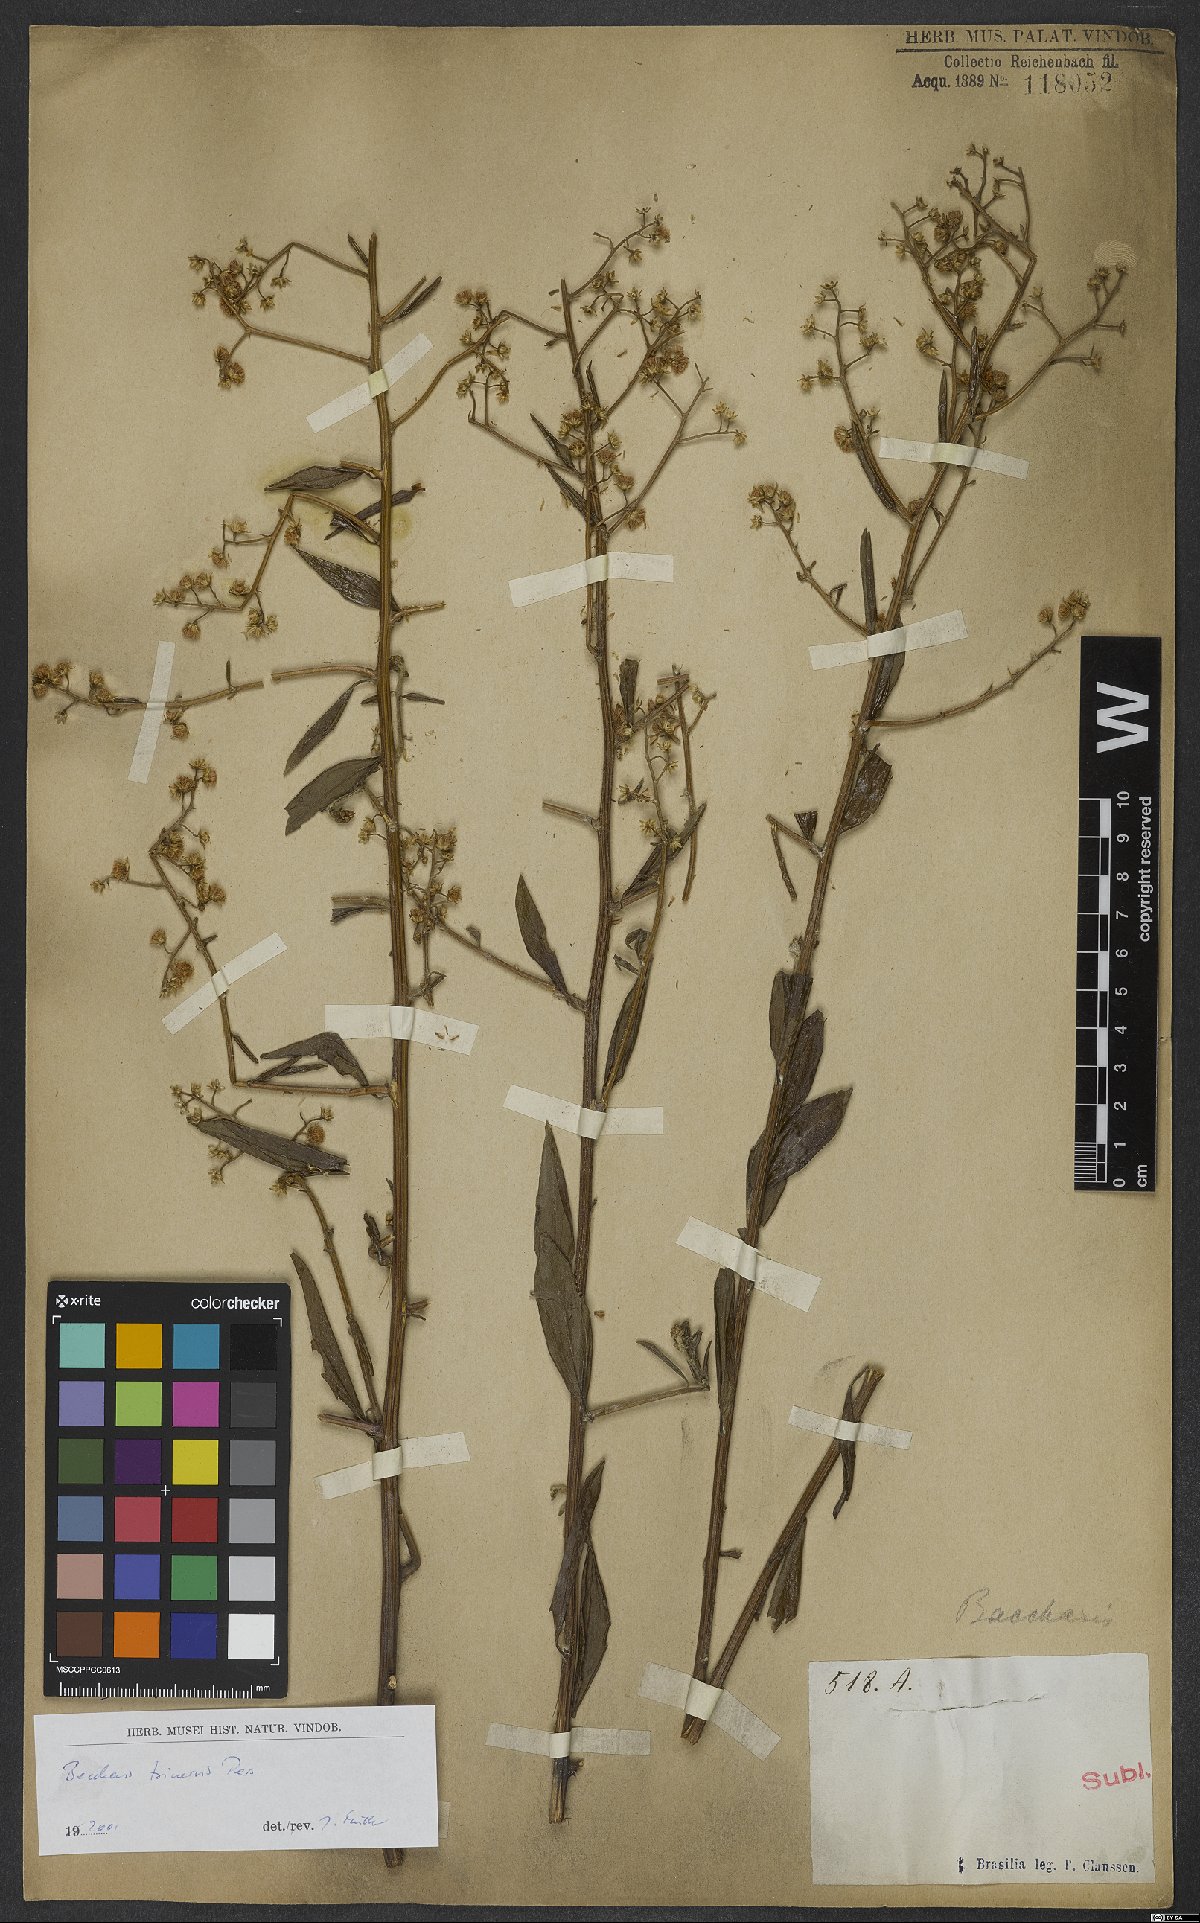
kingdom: Plantae
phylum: Tracheophyta
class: Magnoliopsida
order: Asterales
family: Asteraceae
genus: Baccharis
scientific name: Baccharis trinervis
